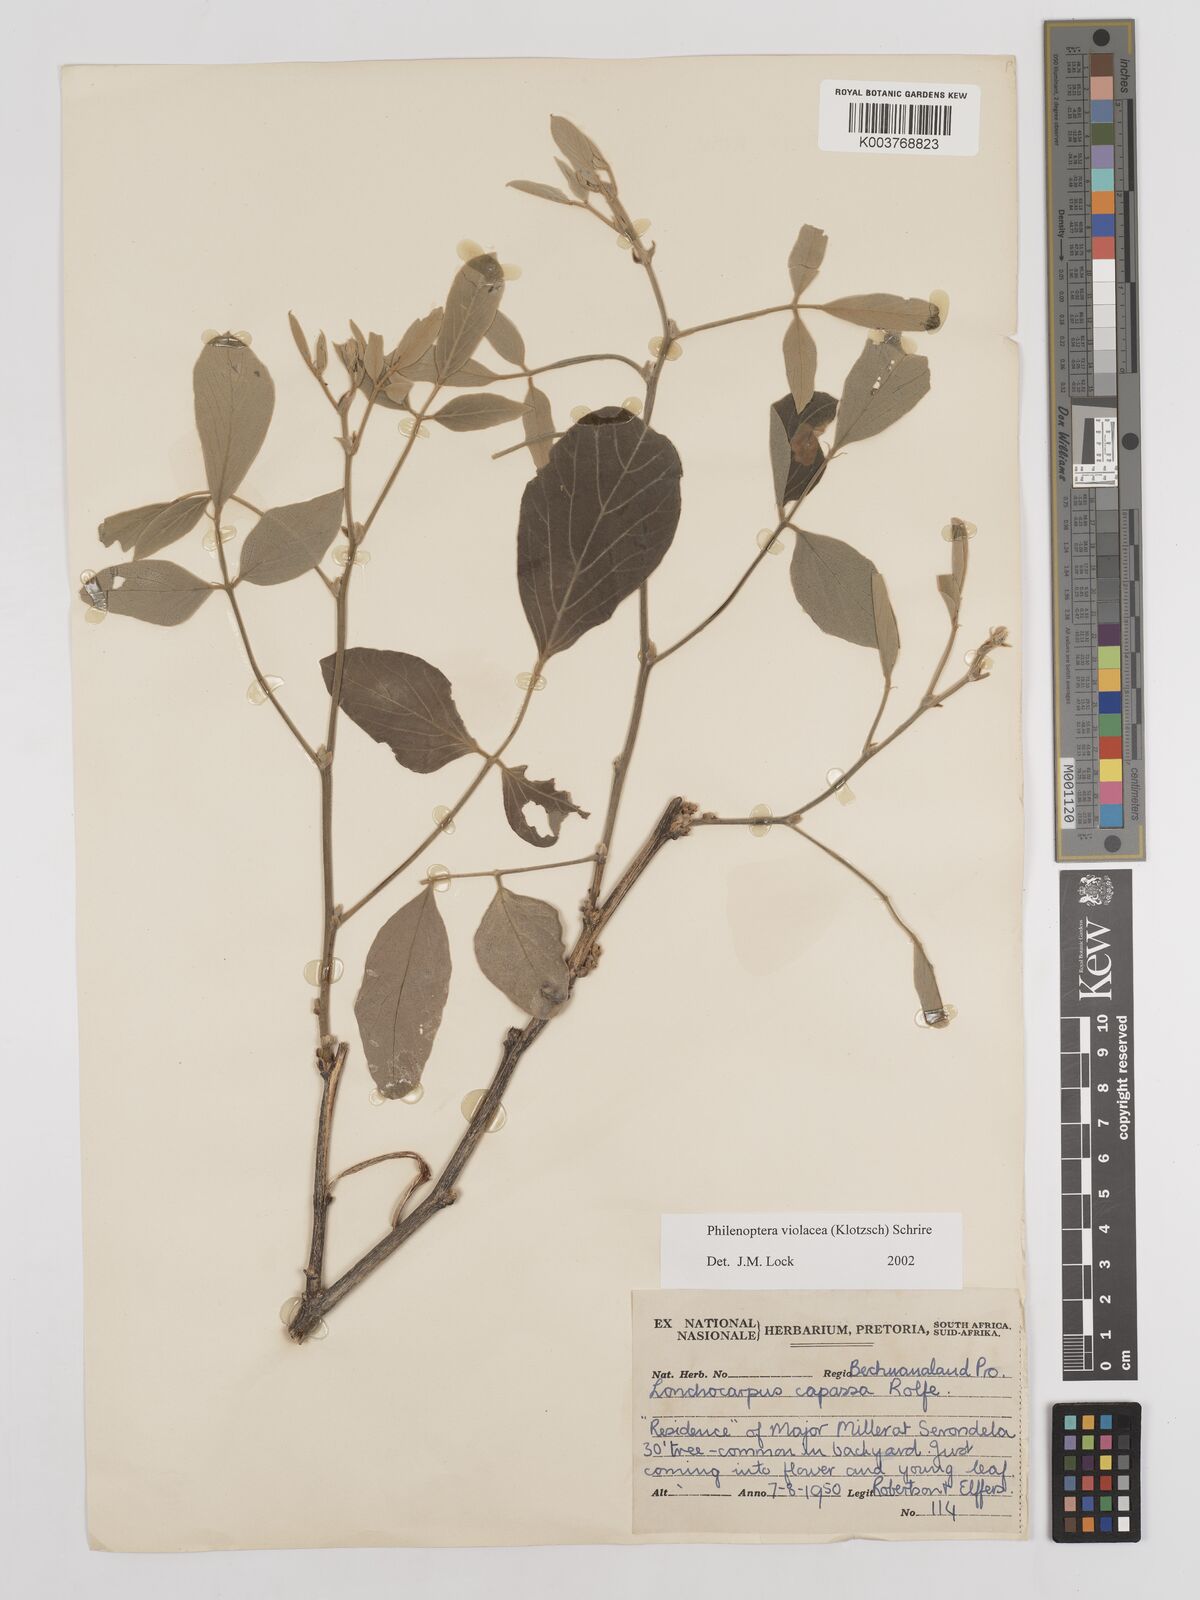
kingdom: Plantae
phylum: Tracheophyta
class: Magnoliopsida
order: Fabales
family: Fabaceae
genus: Philenoptera
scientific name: Philenoptera violacea
